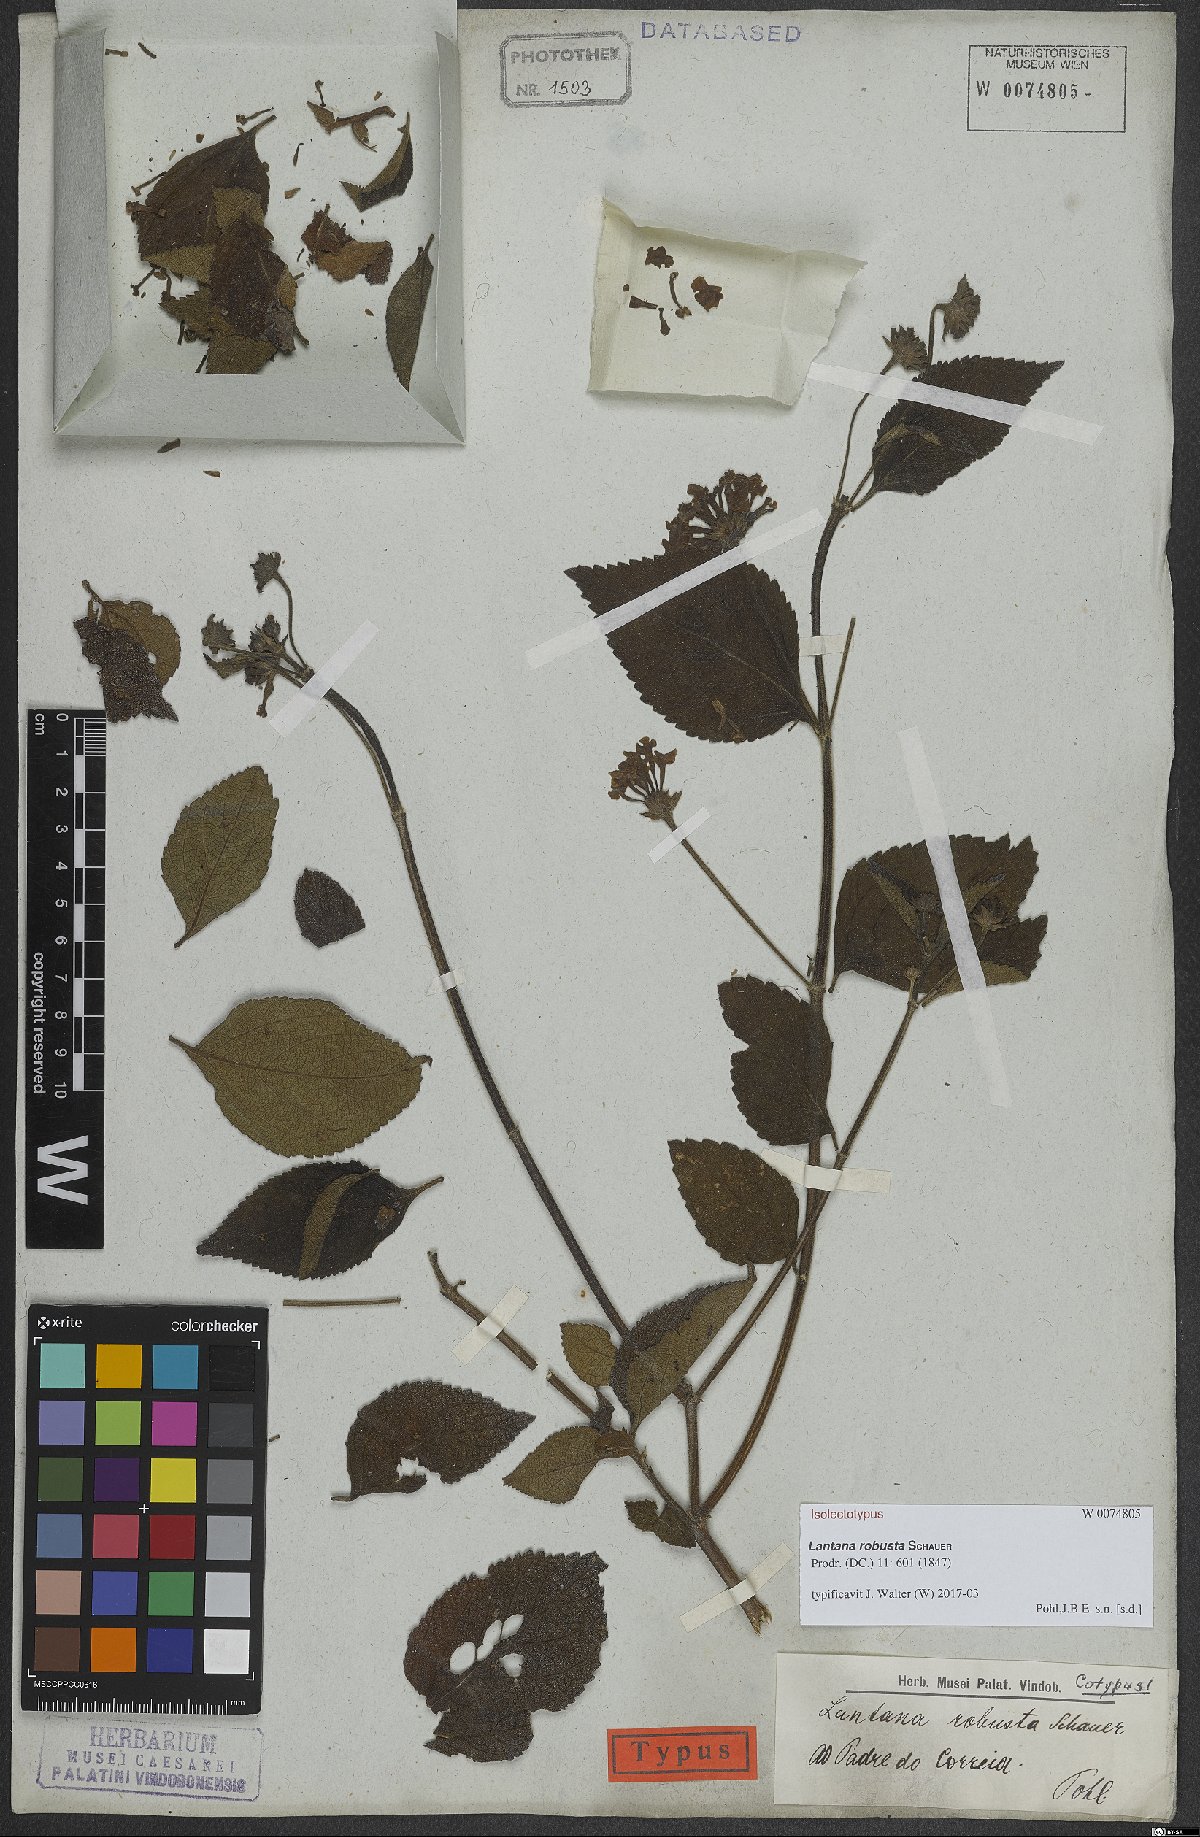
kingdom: Plantae
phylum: Tracheophyta
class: Magnoliopsida
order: Lamiales
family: Verbenaceae
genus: Lantana
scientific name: Lantana robusta
